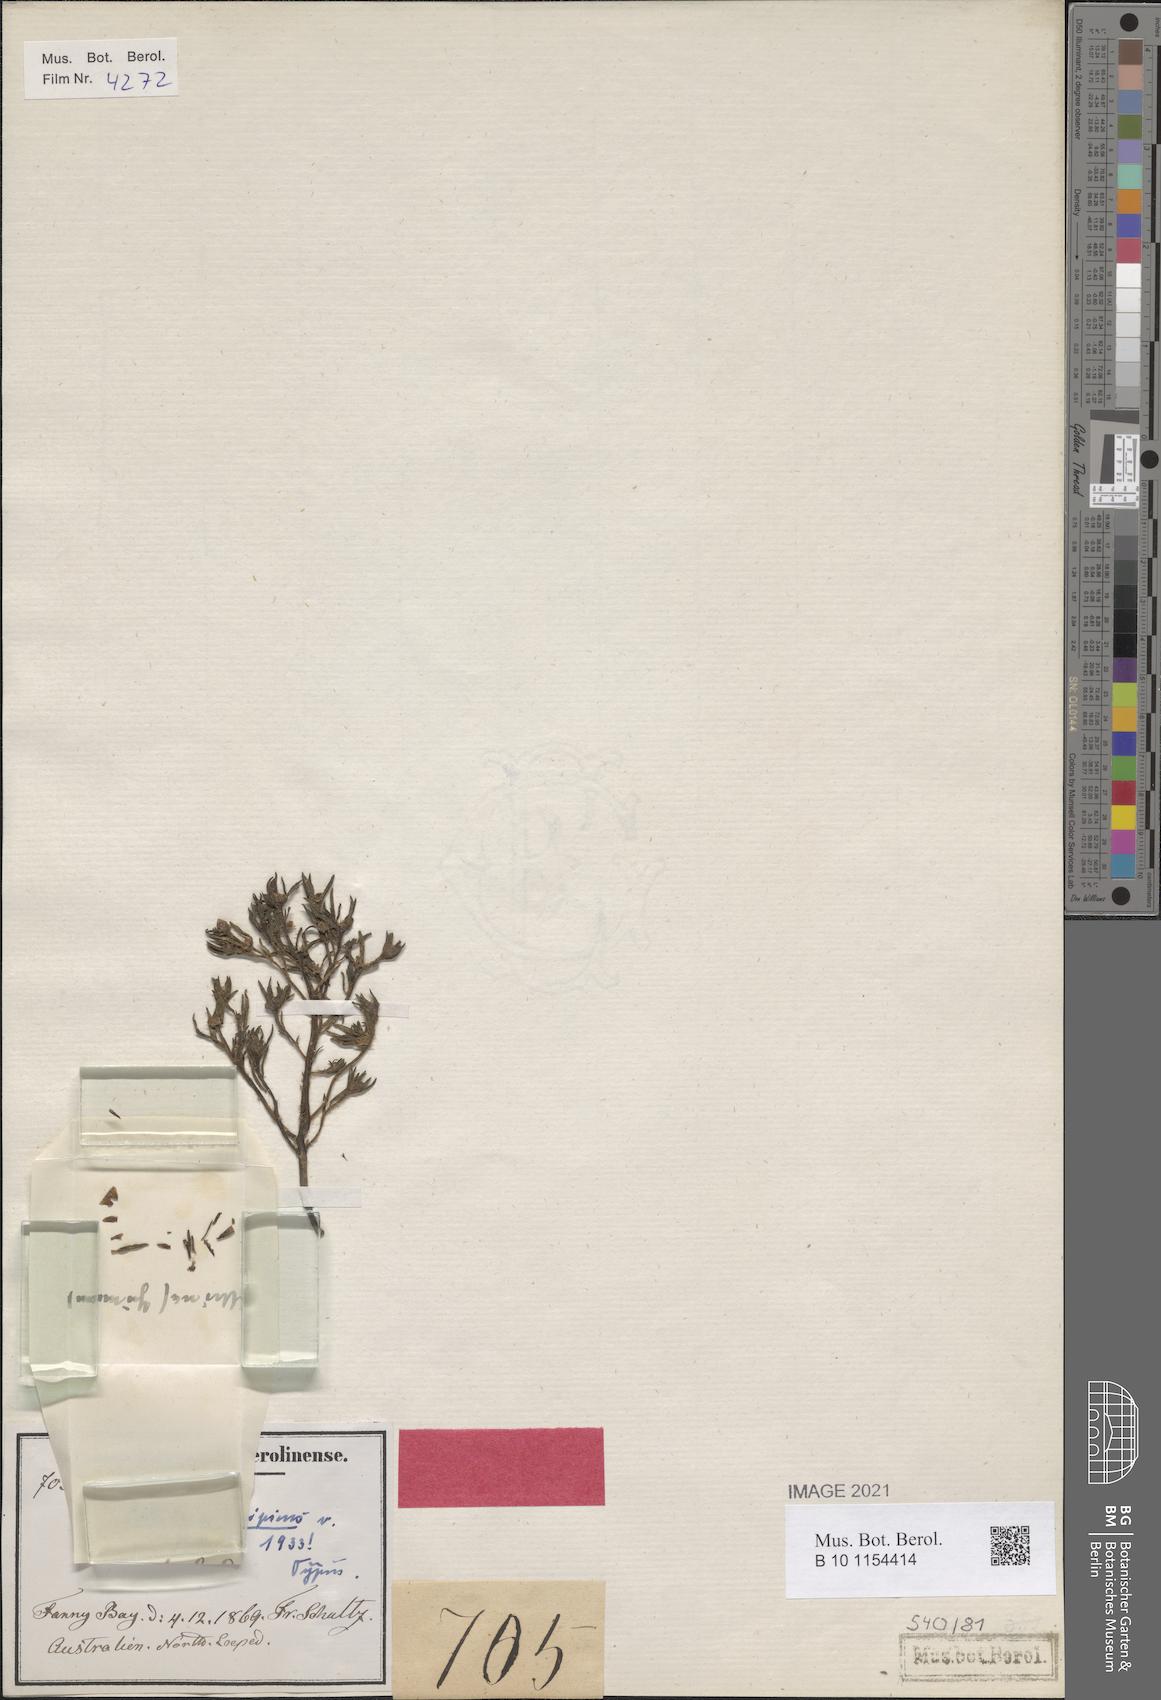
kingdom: Plantae
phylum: Tracheophyta
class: Magnoliopsida
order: Caryophyllales
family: Portulacaceae
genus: Portulaca
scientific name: Portulaca decipiens
